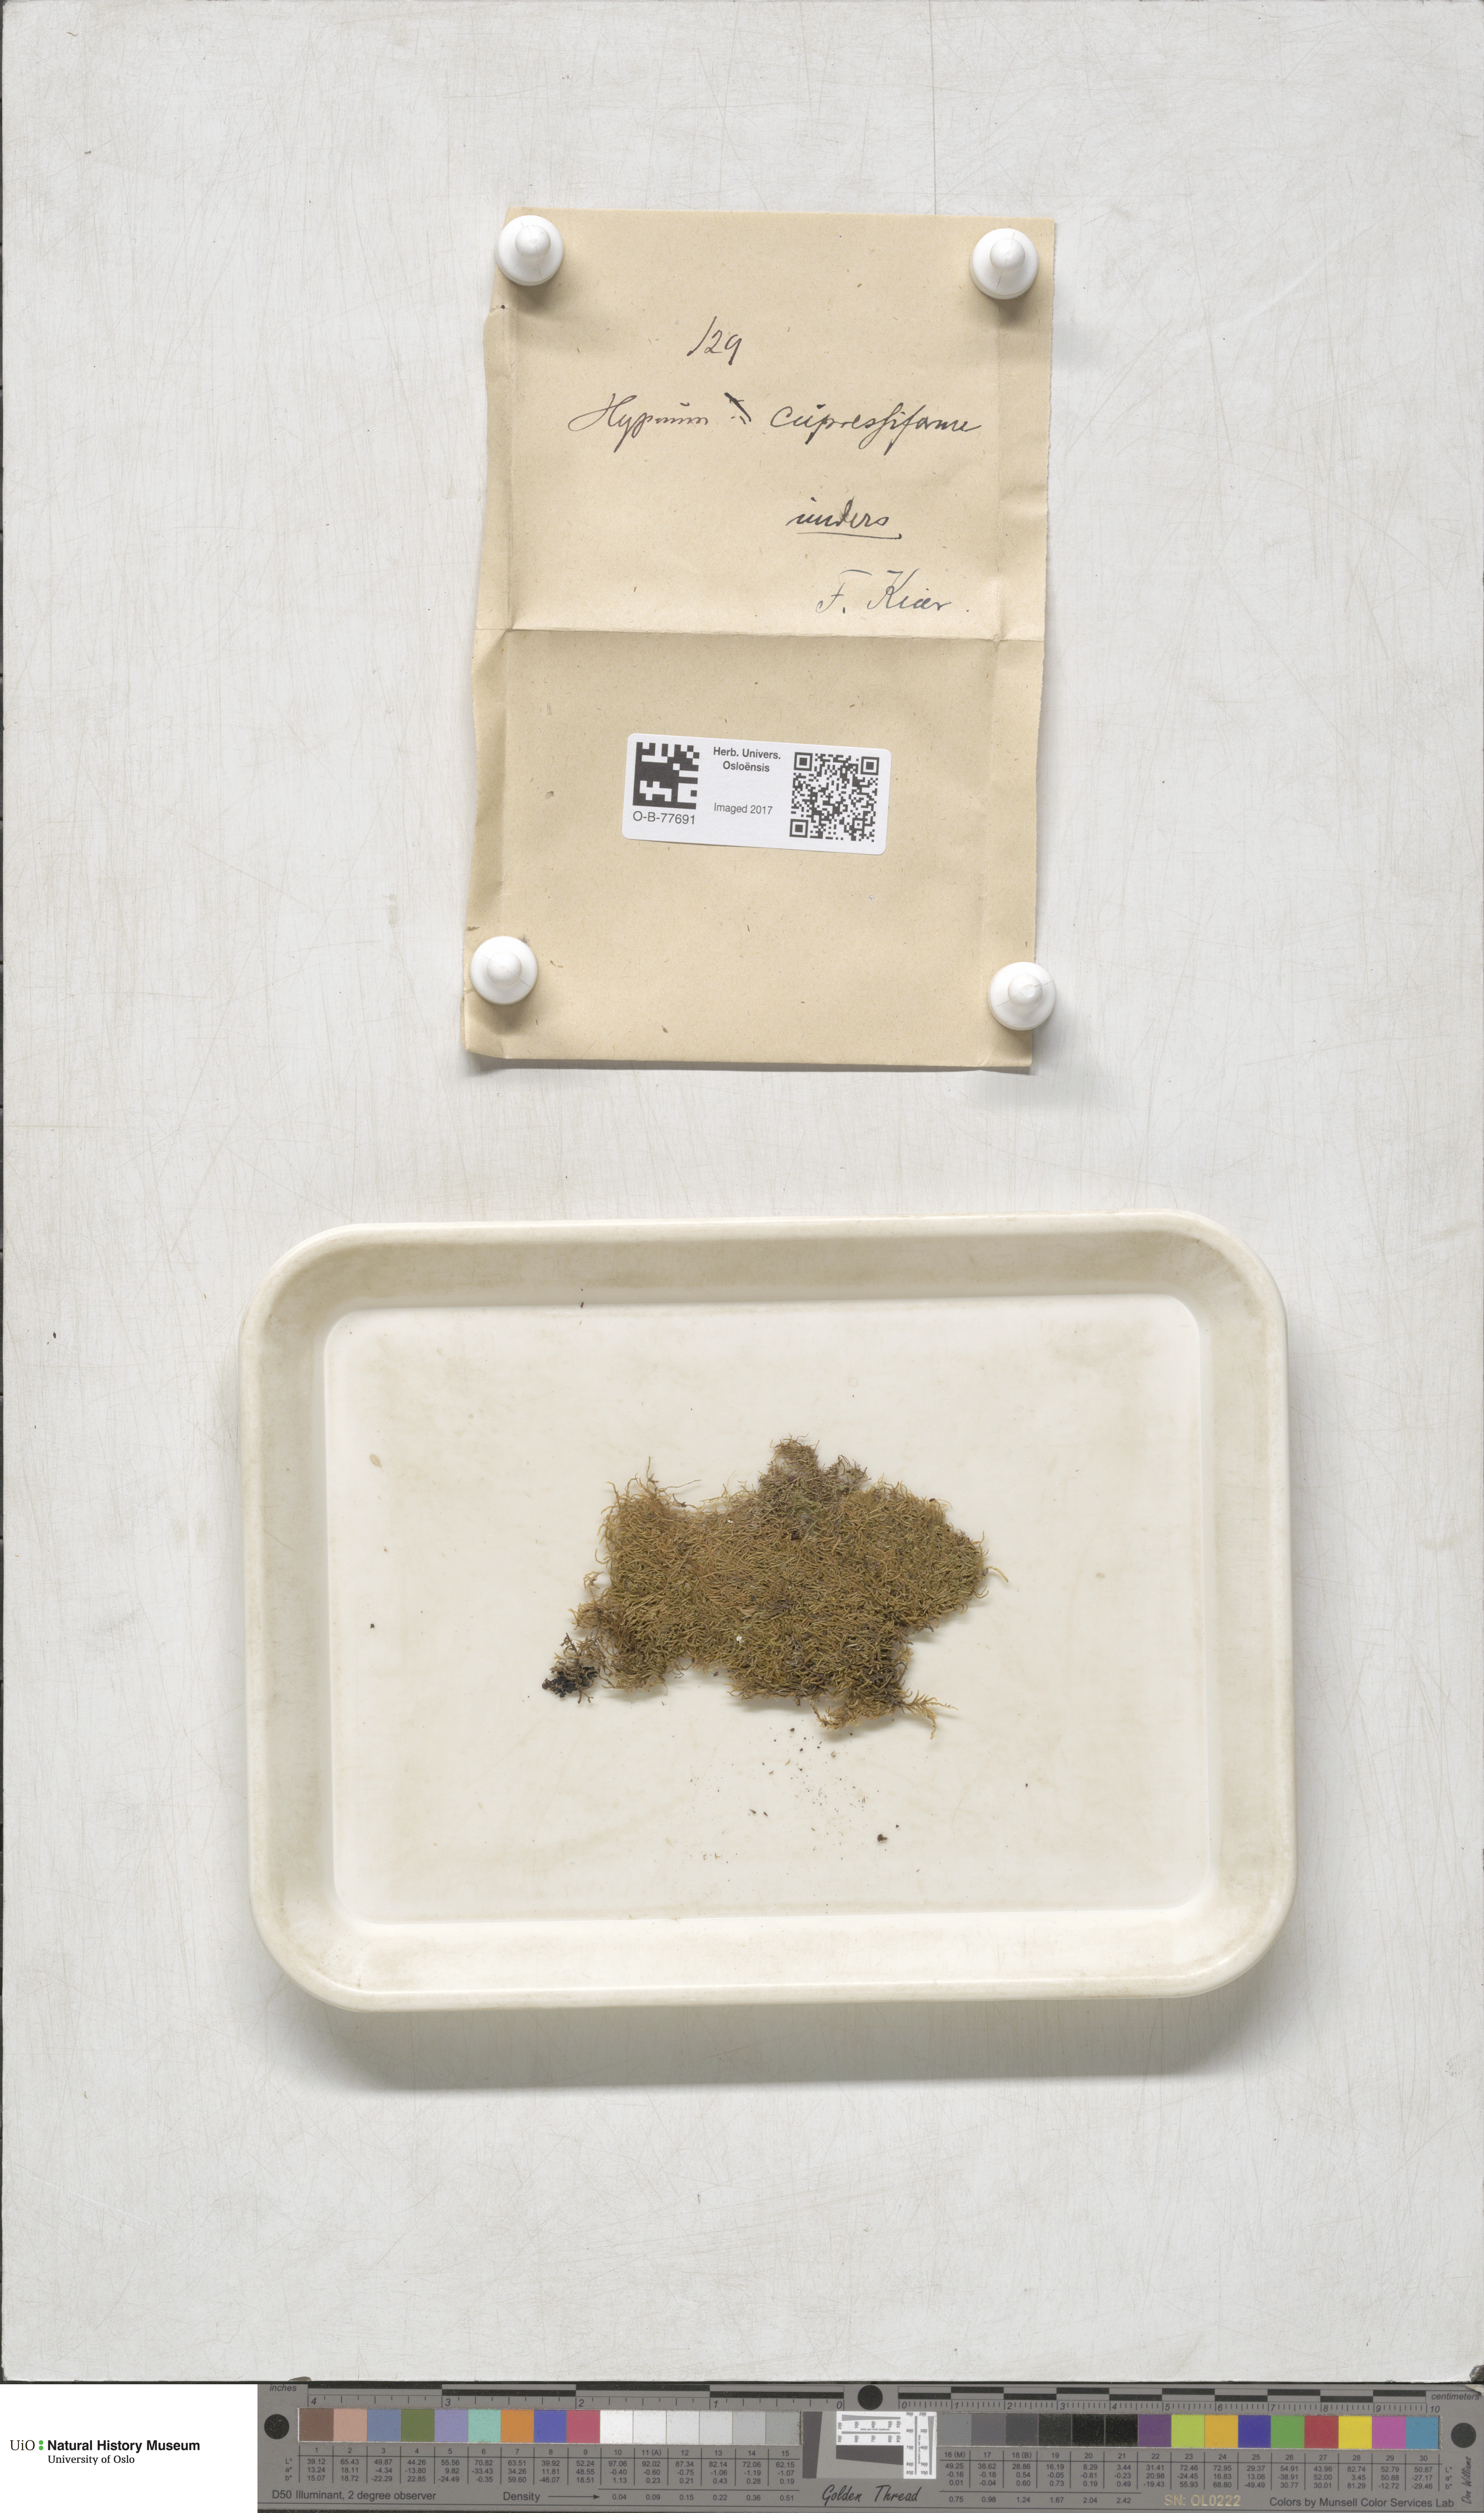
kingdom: Plantae
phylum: Bryophyta
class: Bryopsida
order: Hypnales
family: Hypnaceae
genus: Hypnum
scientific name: Hypnum cupressiforme
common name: Cypress-leaved plait-moss
